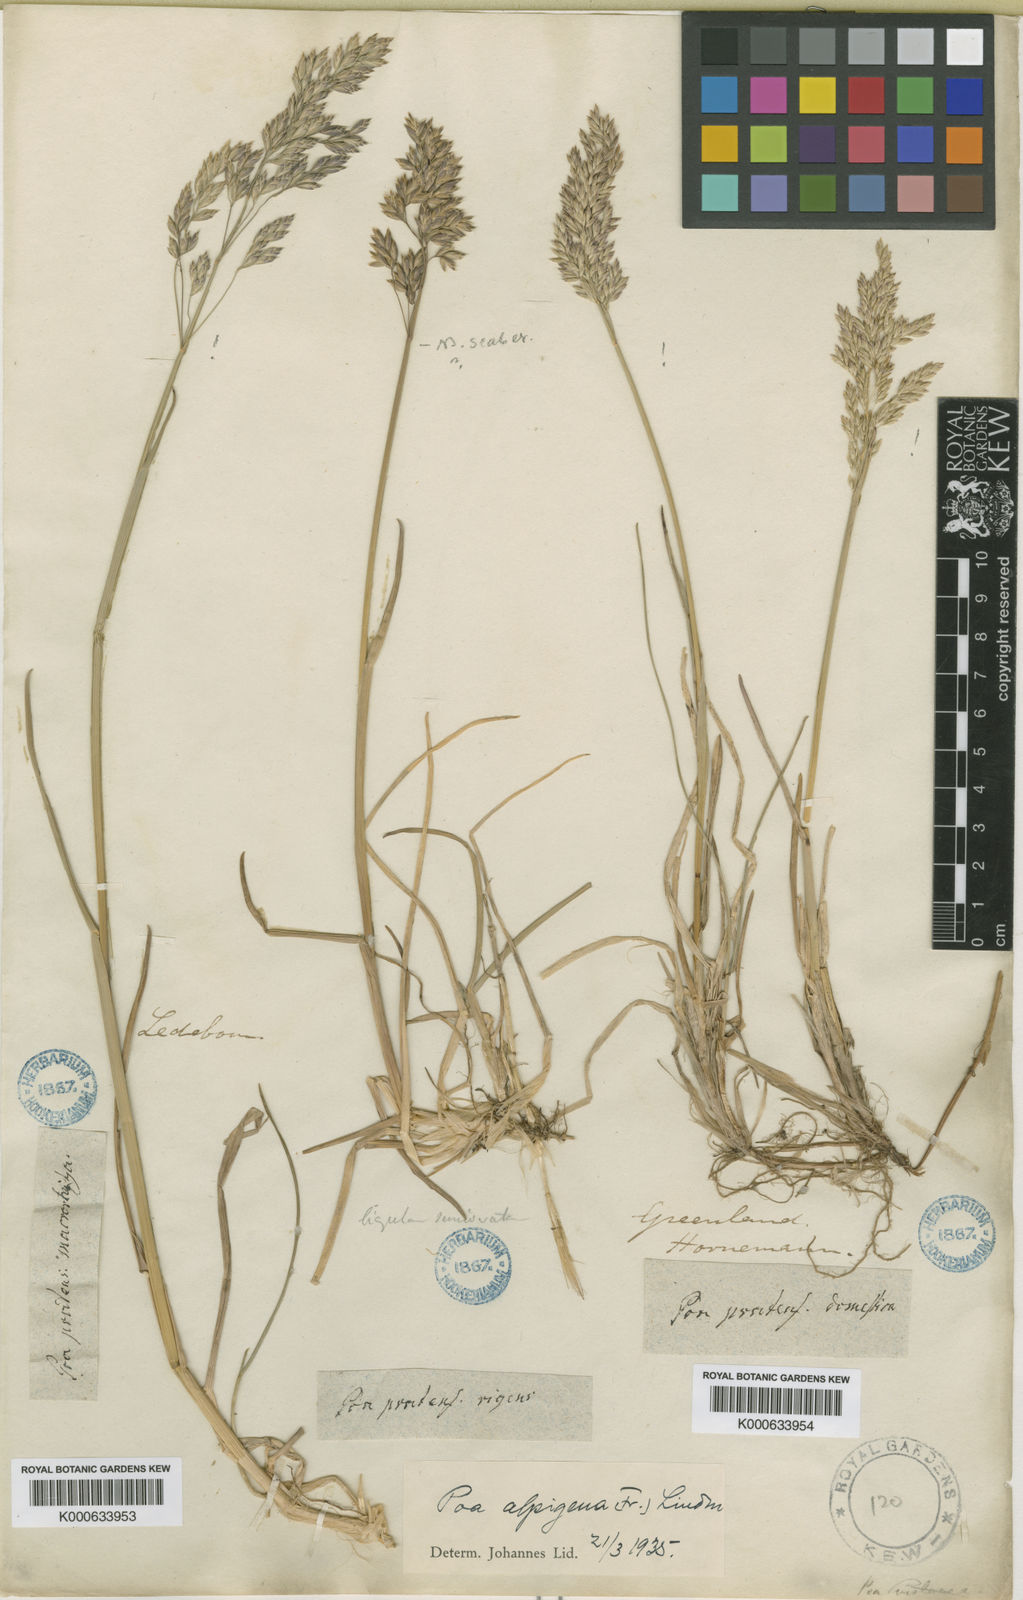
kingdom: Plantae
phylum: Tracheophyta
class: Liliopsida
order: Poales
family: Poaceae
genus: Poa
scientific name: Poa alpigena
